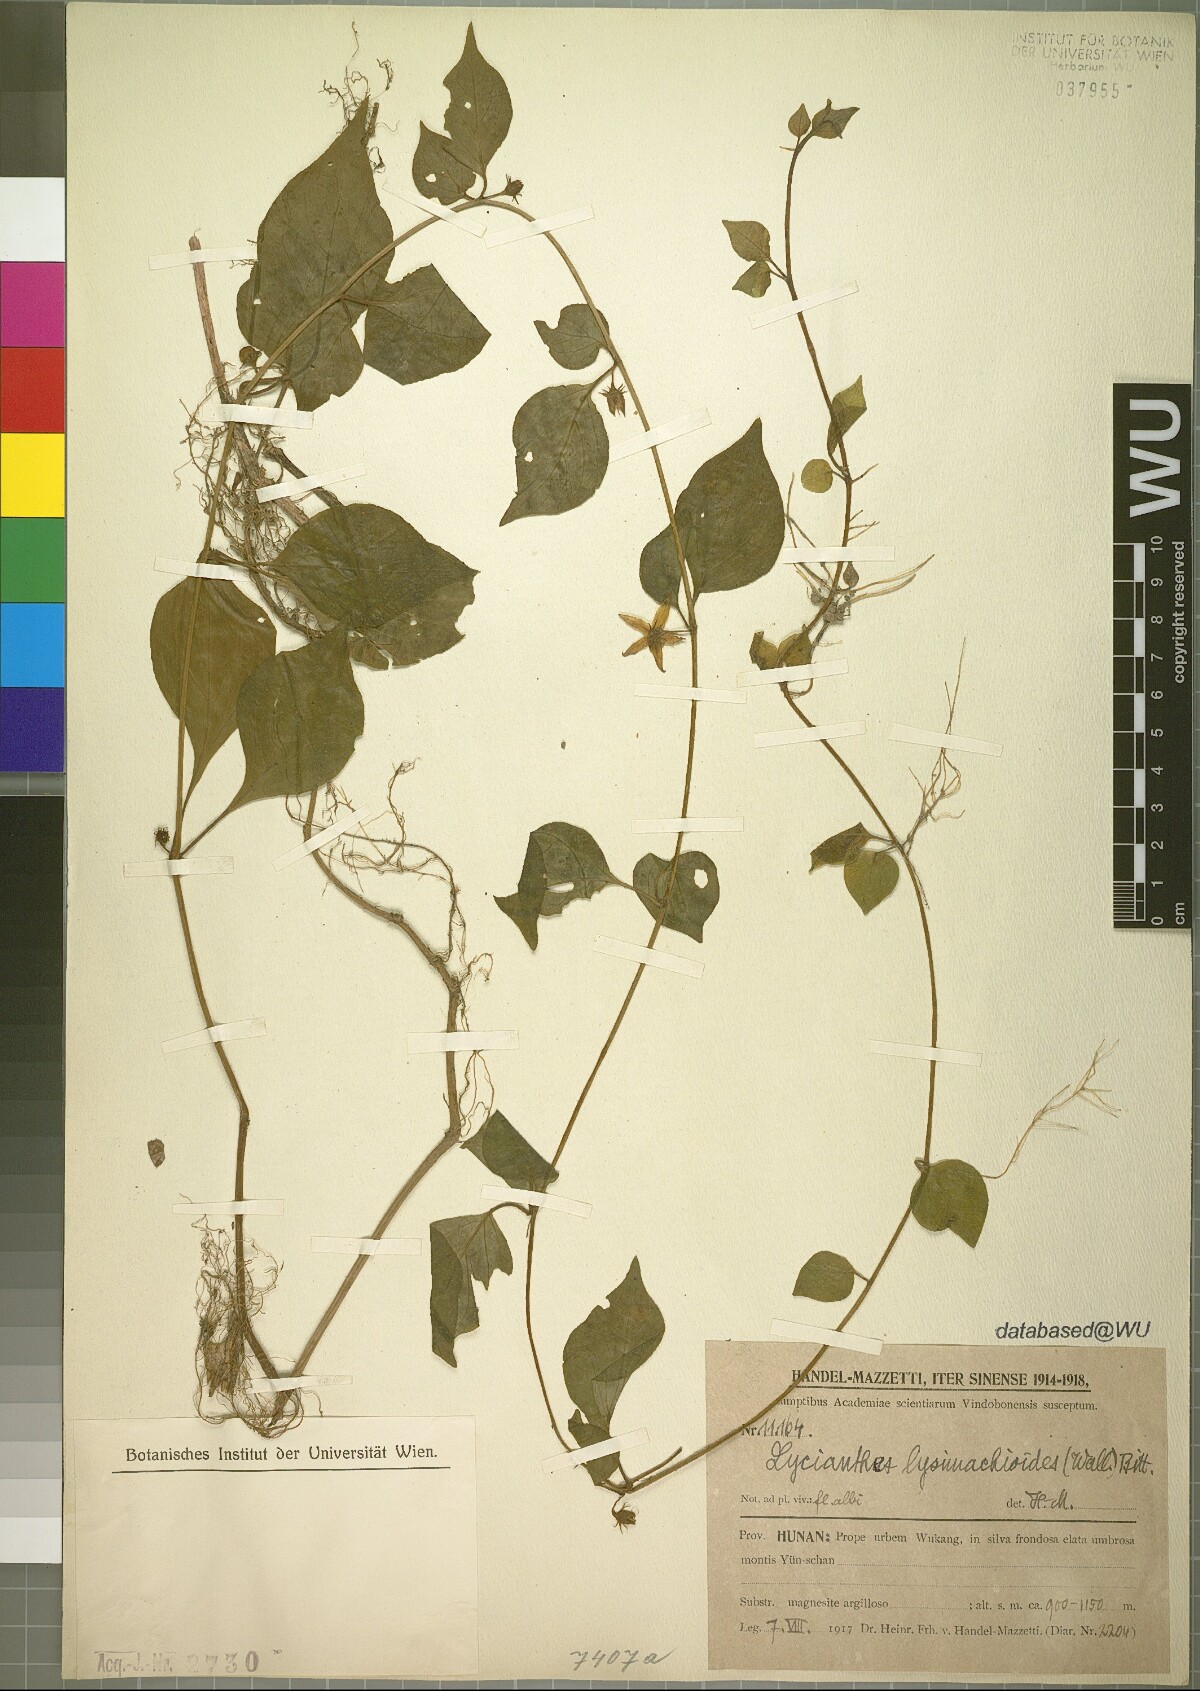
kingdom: Plantae
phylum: Tracheophyta
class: Magnoliopsida
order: Solanales
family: Solanaceae
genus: Lycianthes
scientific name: Lycianthes lysimachioides
